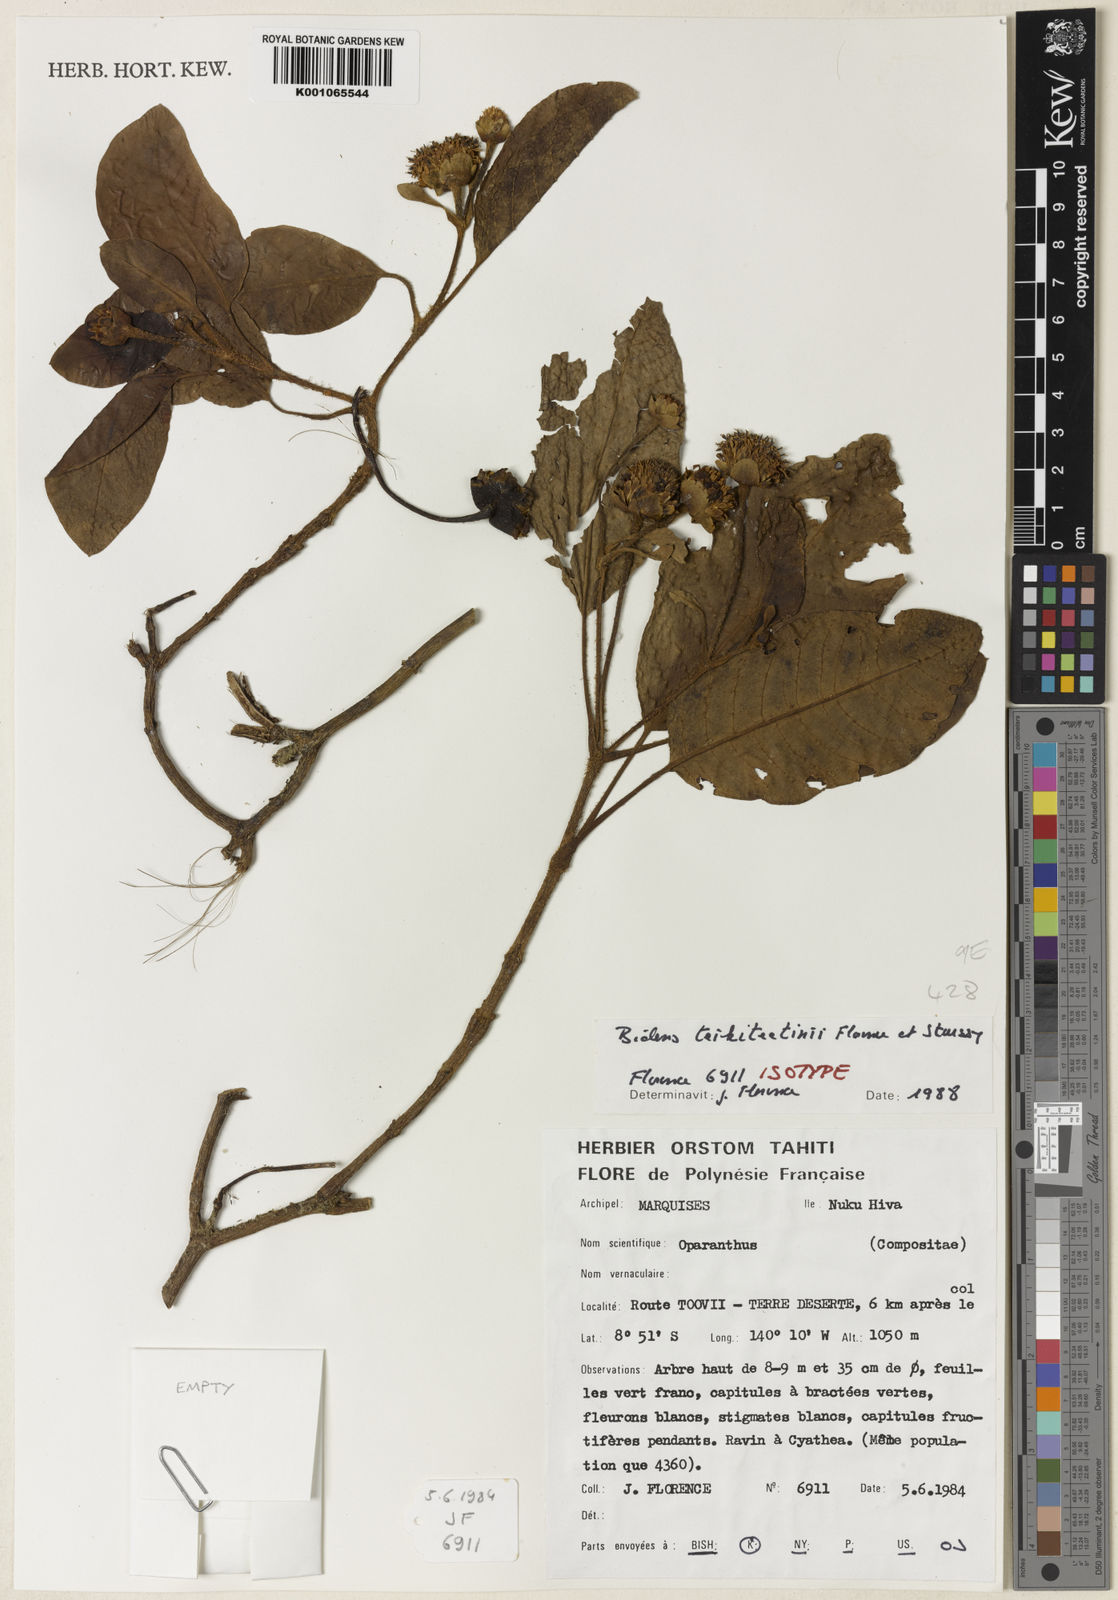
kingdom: Plantae
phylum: Tracheophyta
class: Magnoliopsida
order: Asterales
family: Asteraceae
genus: Oparanthus
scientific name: Oparanthus teikiteetinii
